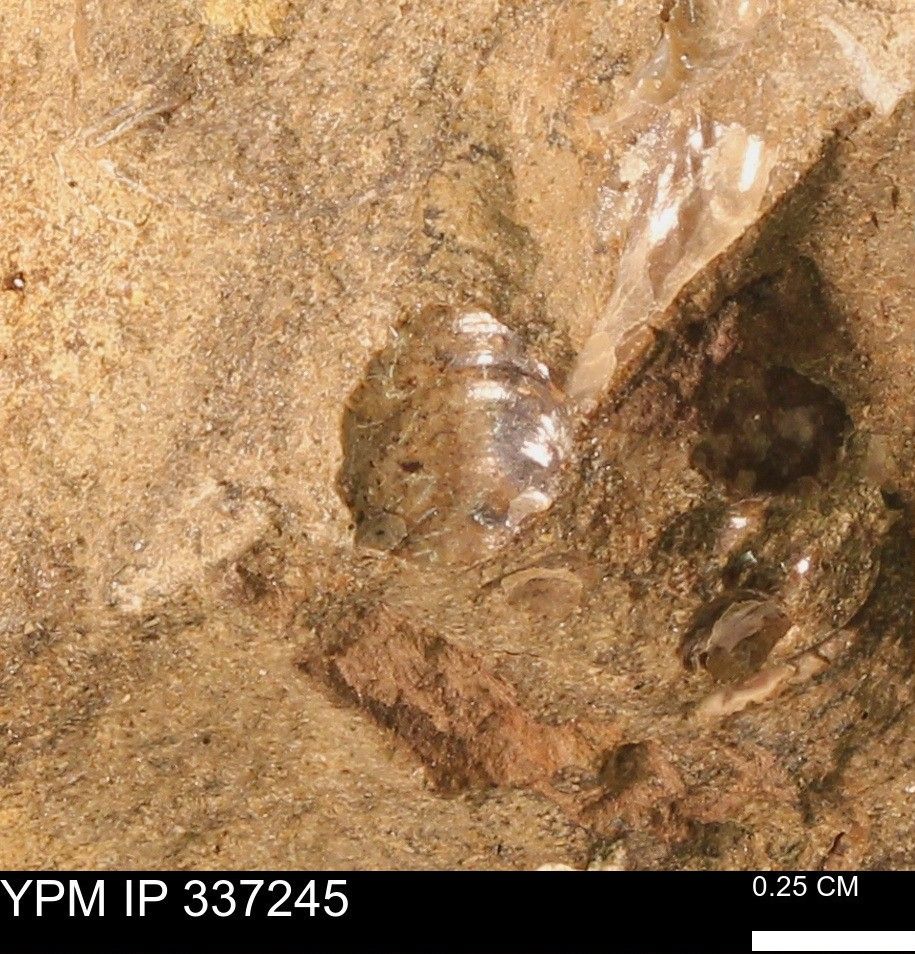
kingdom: Animalia
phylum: Mollusca
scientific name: Mollusca
